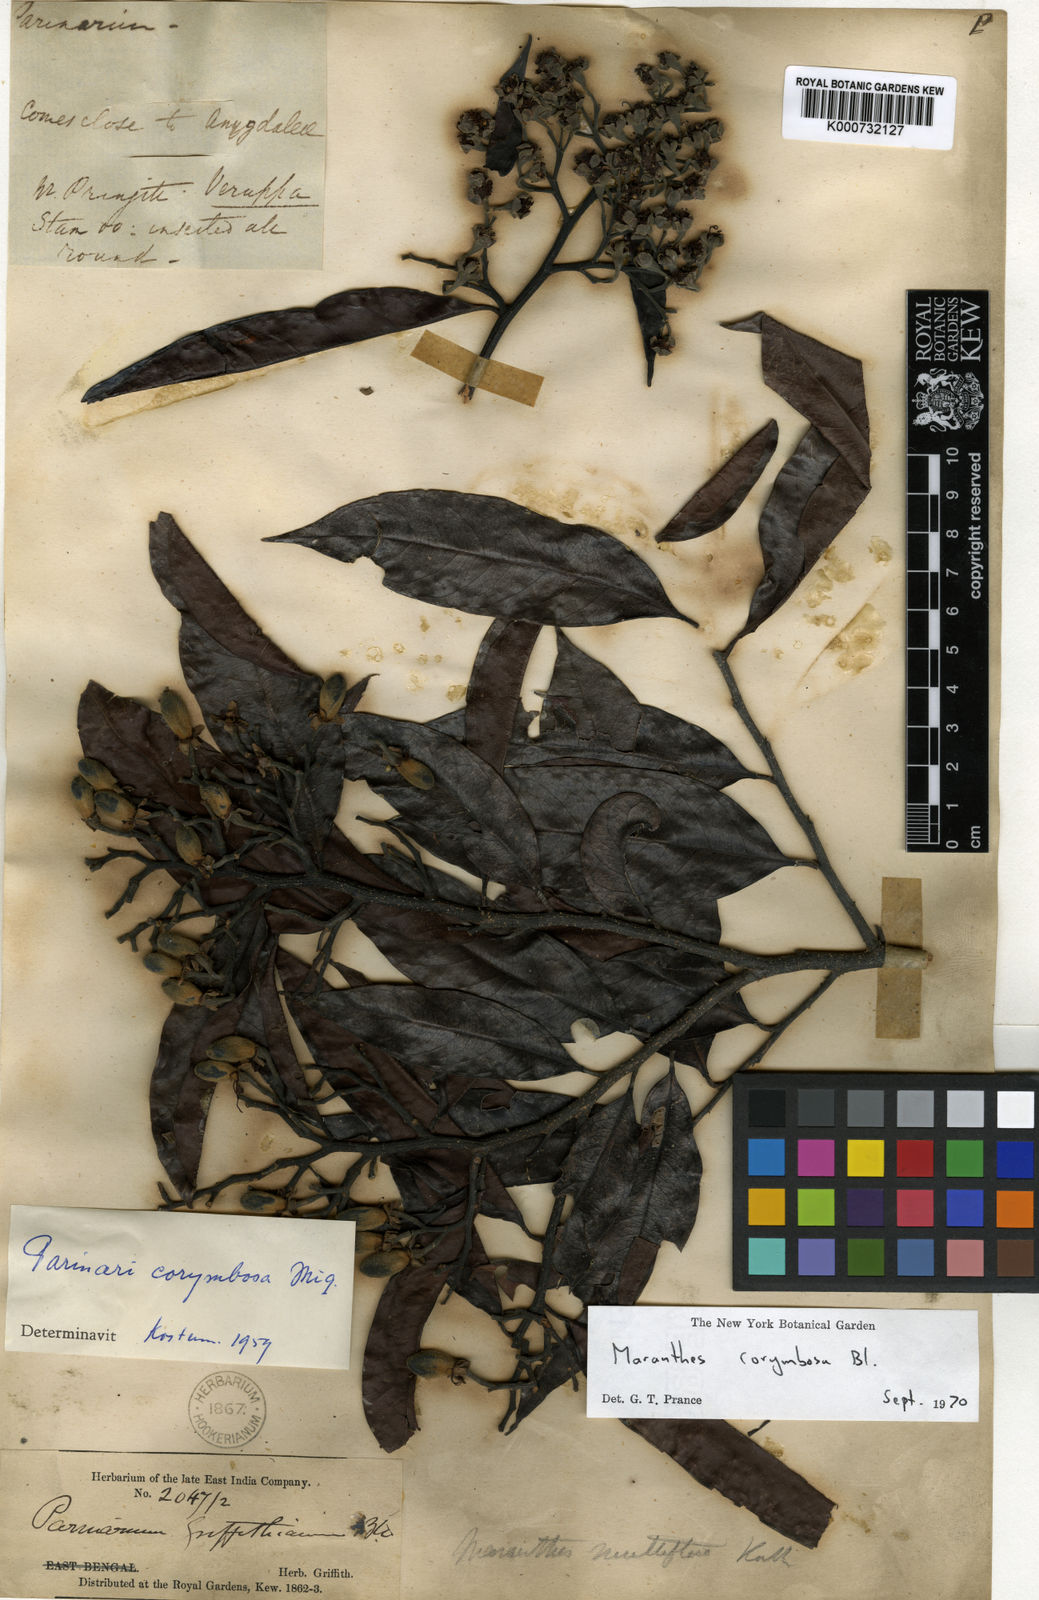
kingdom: Plantae
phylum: Tracheophyta
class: Magnoliopsida
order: Malpighiales
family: Chrysobalanaceae
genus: Maranthes
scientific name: Maranthes corymbosa
